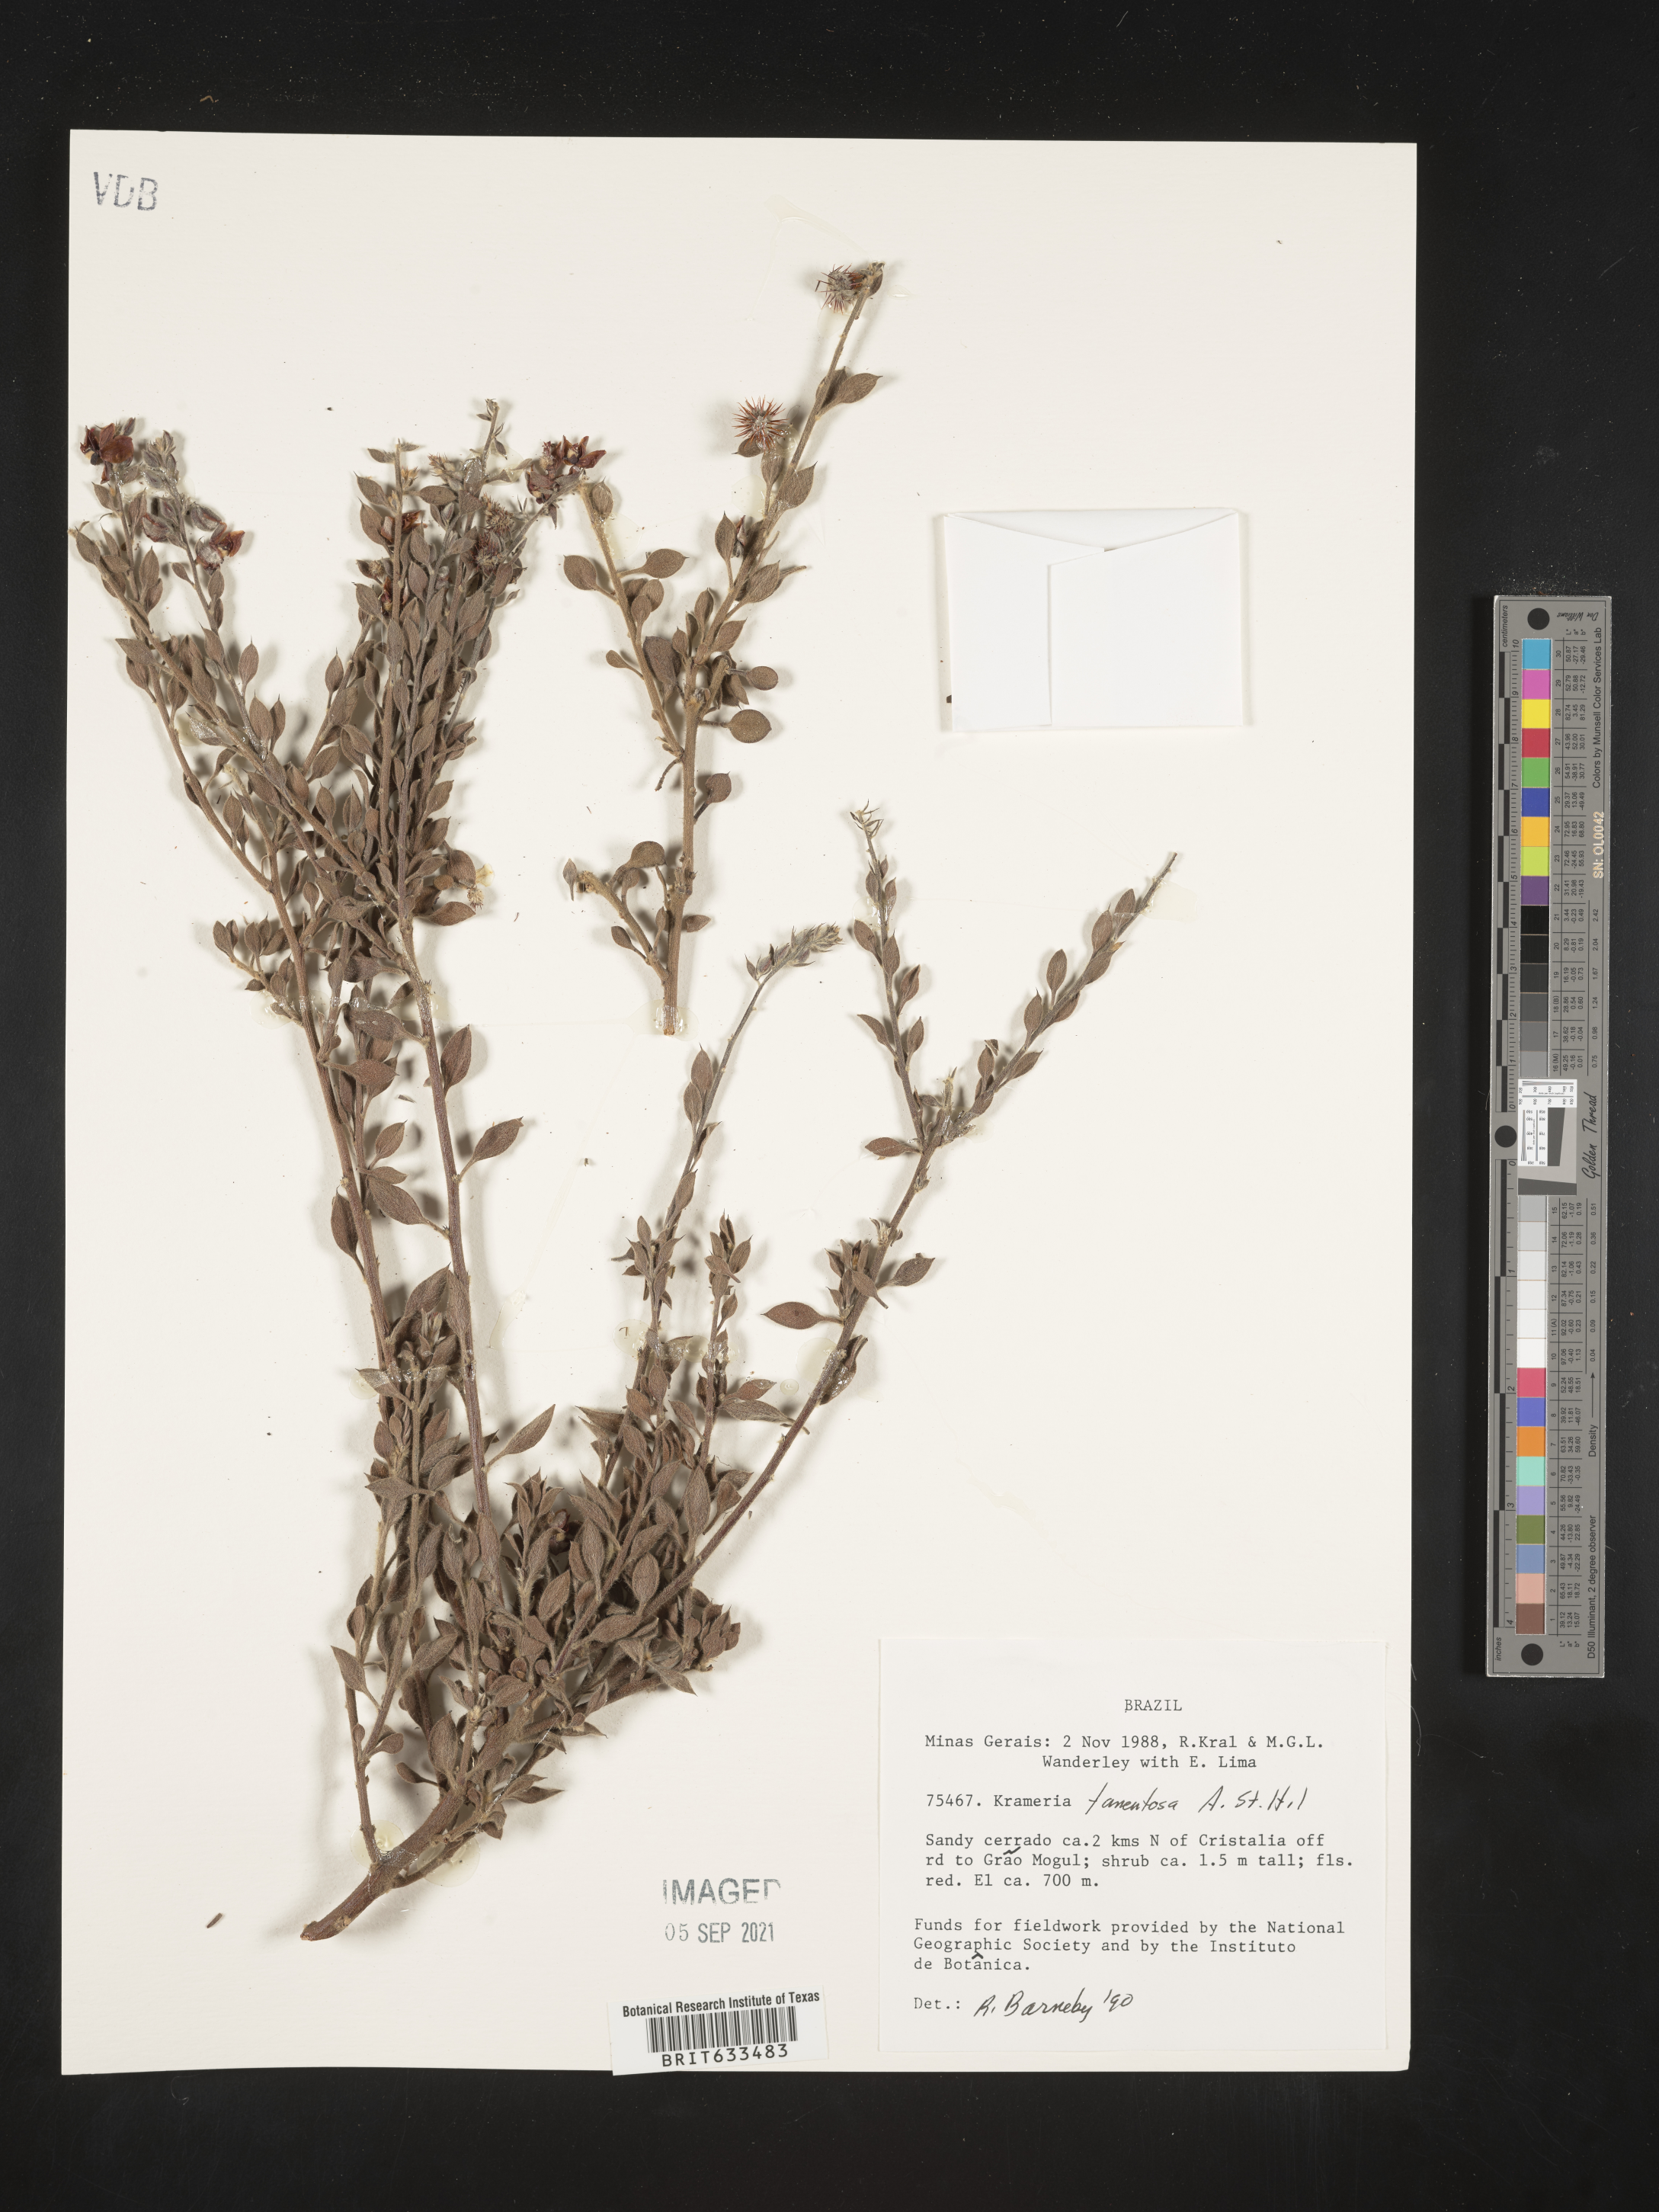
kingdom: Plantae
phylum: Tracheophyta
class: Magnoliopsida
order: Zygophyllales
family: Krameriaceae
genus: Krameria
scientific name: Krameria
